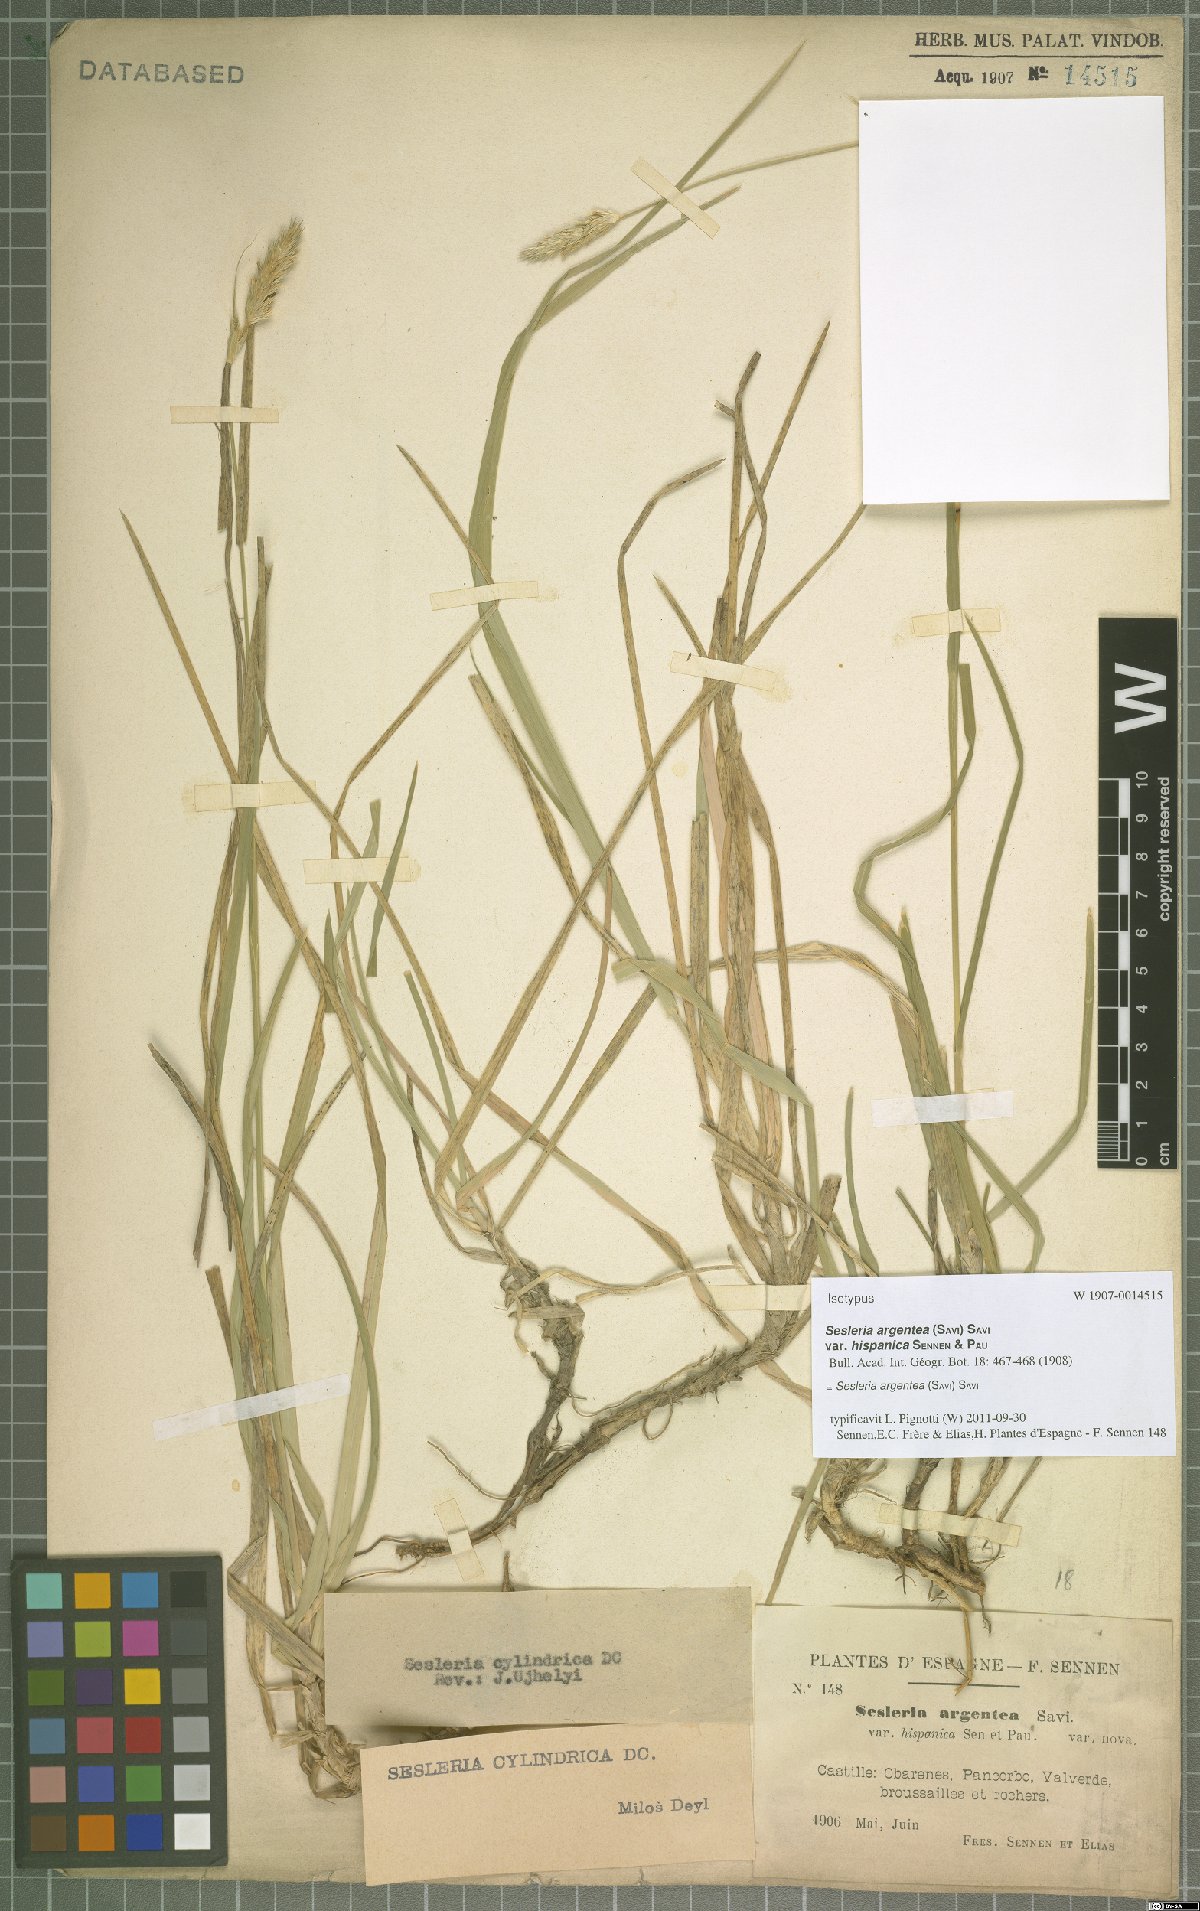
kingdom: Plantae
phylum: Tracheophyta
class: Liliopsida
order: Poales
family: Poaceae
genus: Sesleria
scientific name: Sesleria argentea
